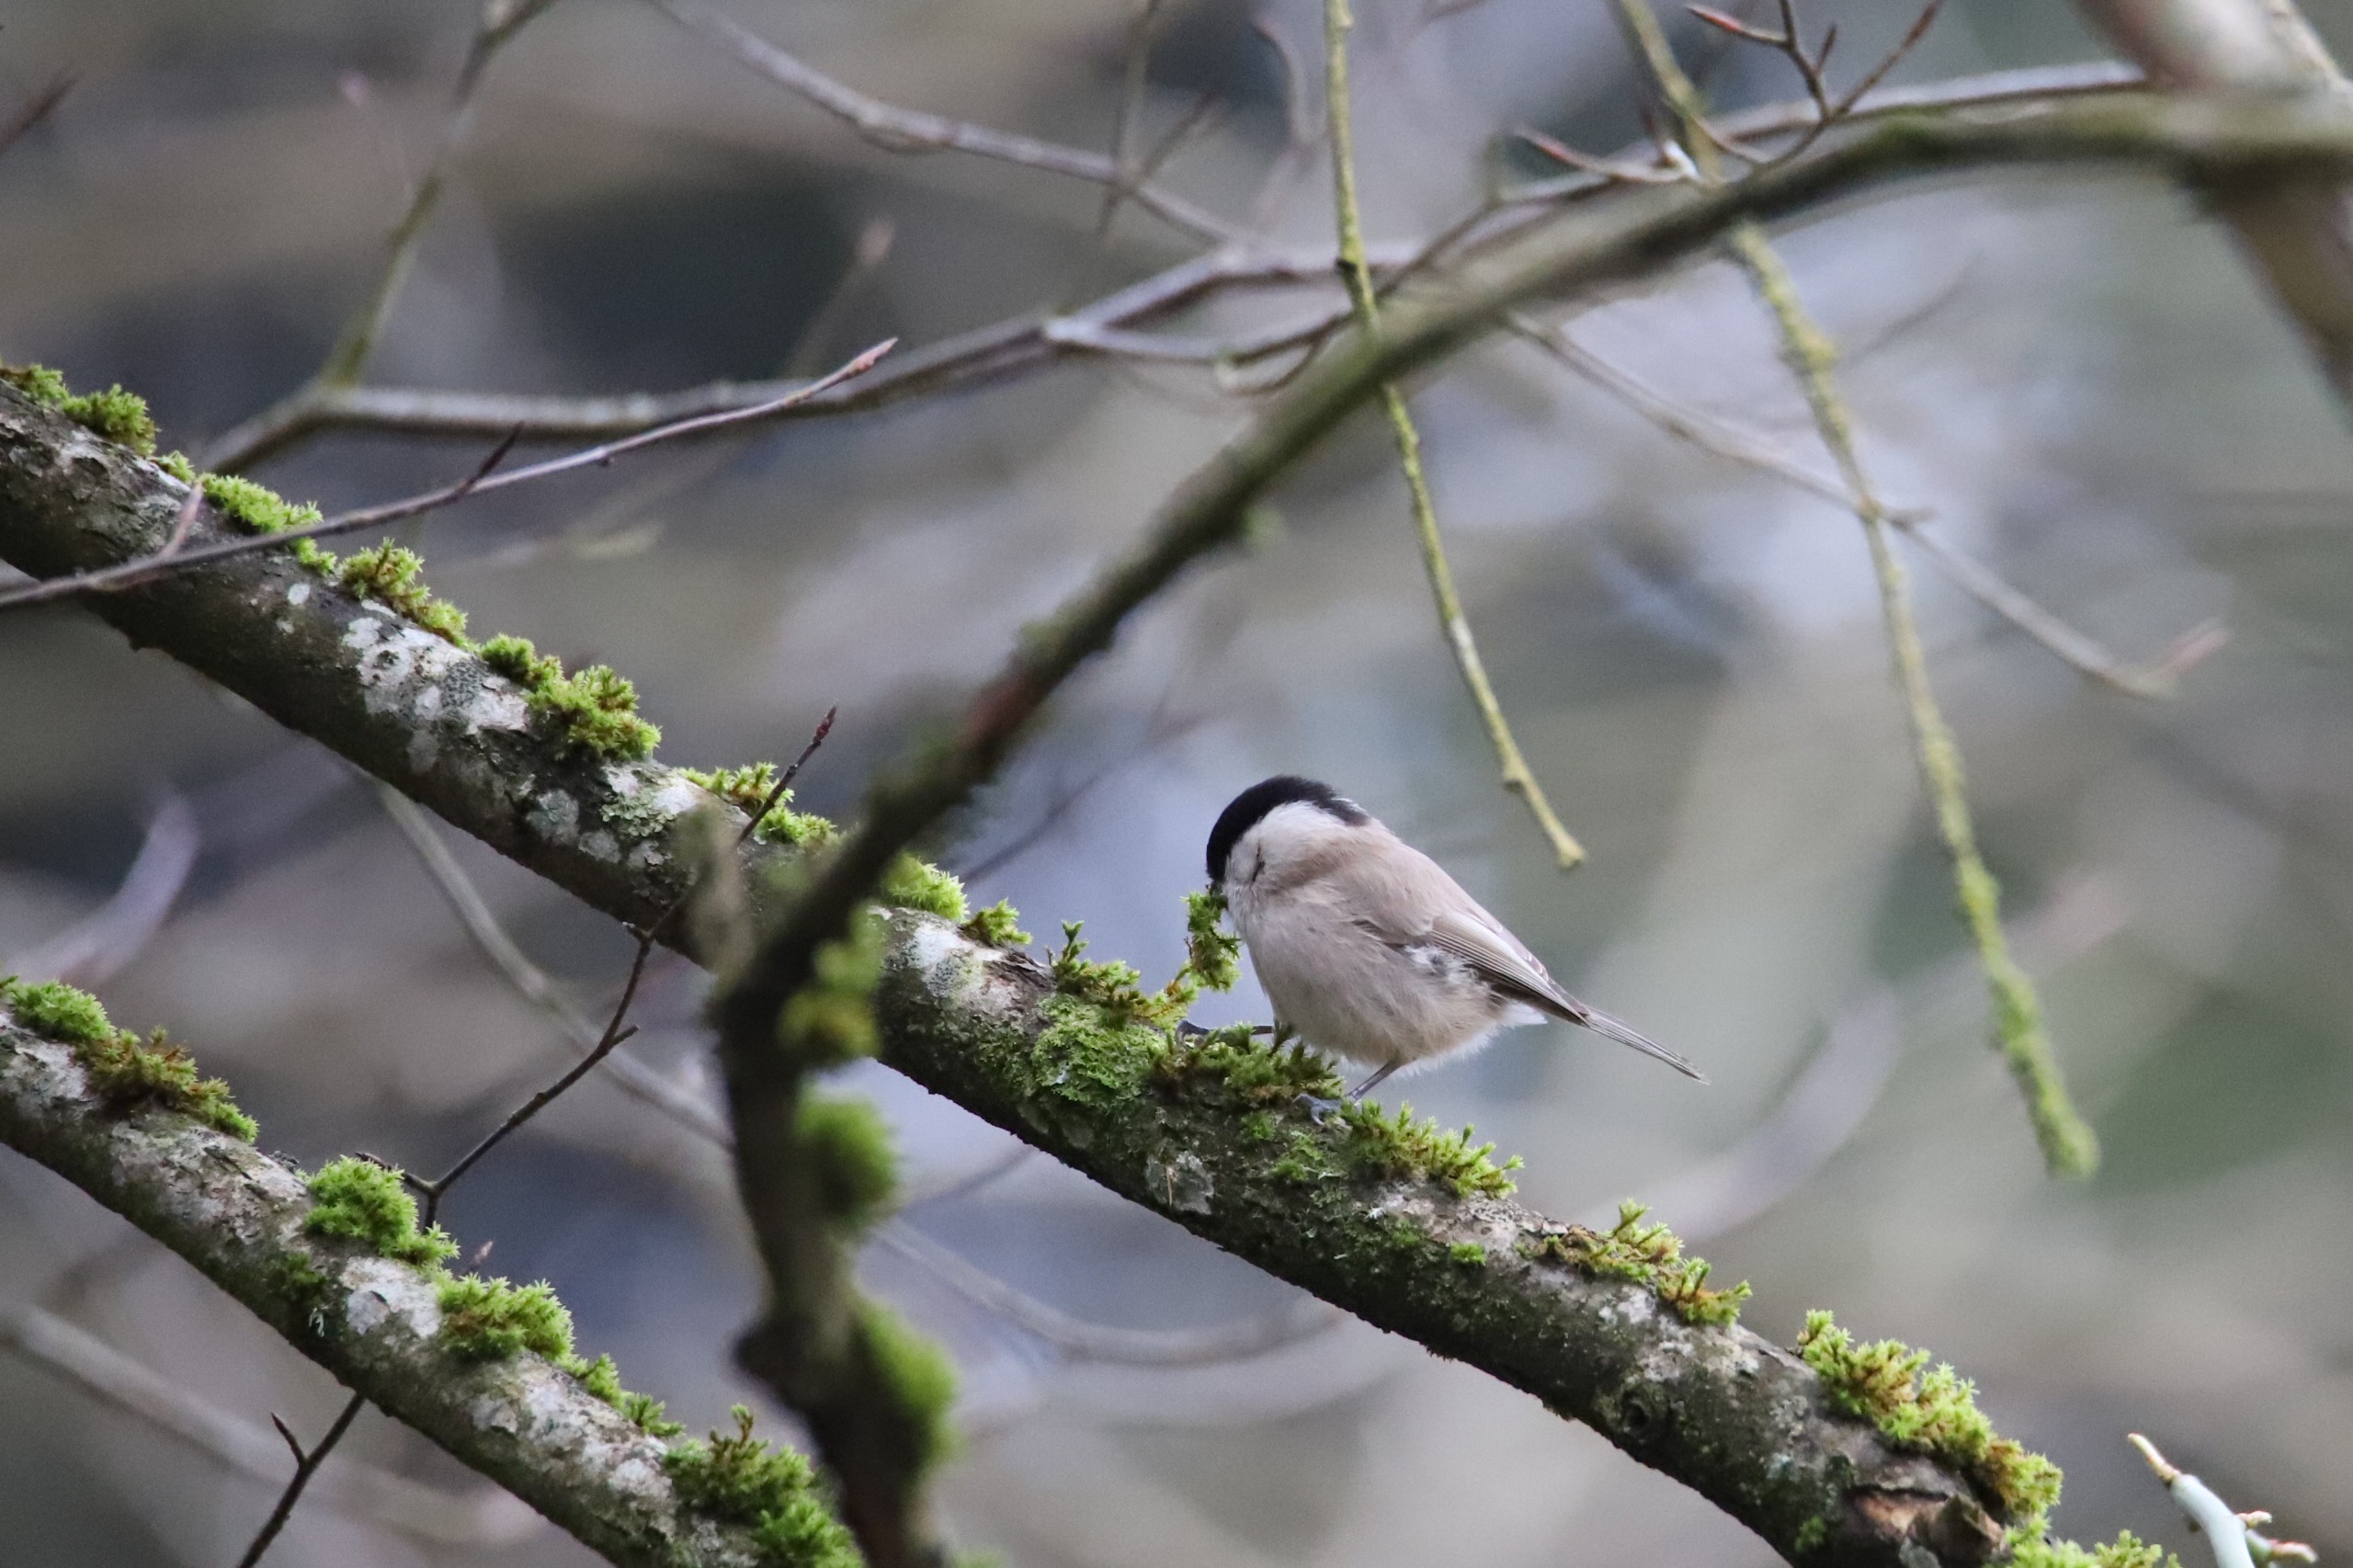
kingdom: Animalia
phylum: Chordata
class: Aves
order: Passeriformes
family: Paridae
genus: Poecile
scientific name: Poecile palustris
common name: Sumpmejse
